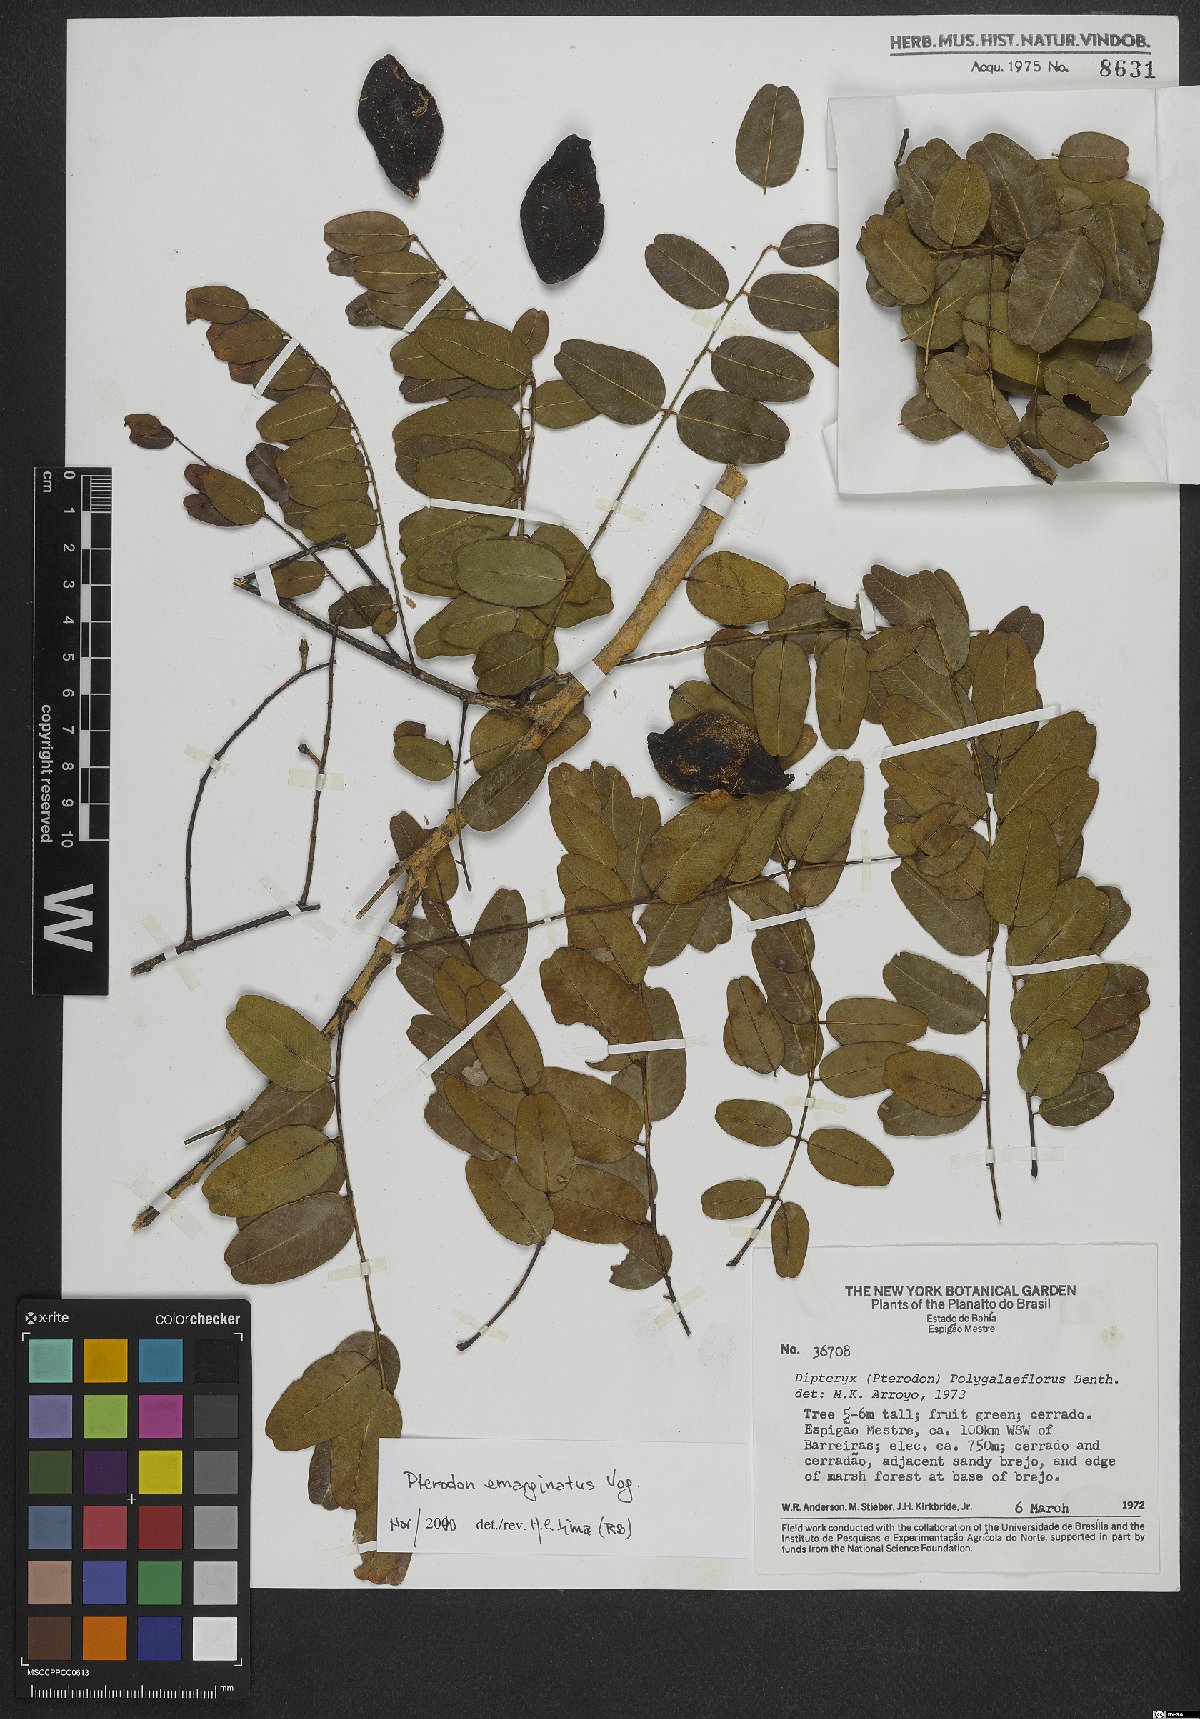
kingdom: Plantae
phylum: Tracheophyta
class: Magnoliopsida
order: Fabales
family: Fabaceae
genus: Pterodon
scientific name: Pterodon emarginatus
